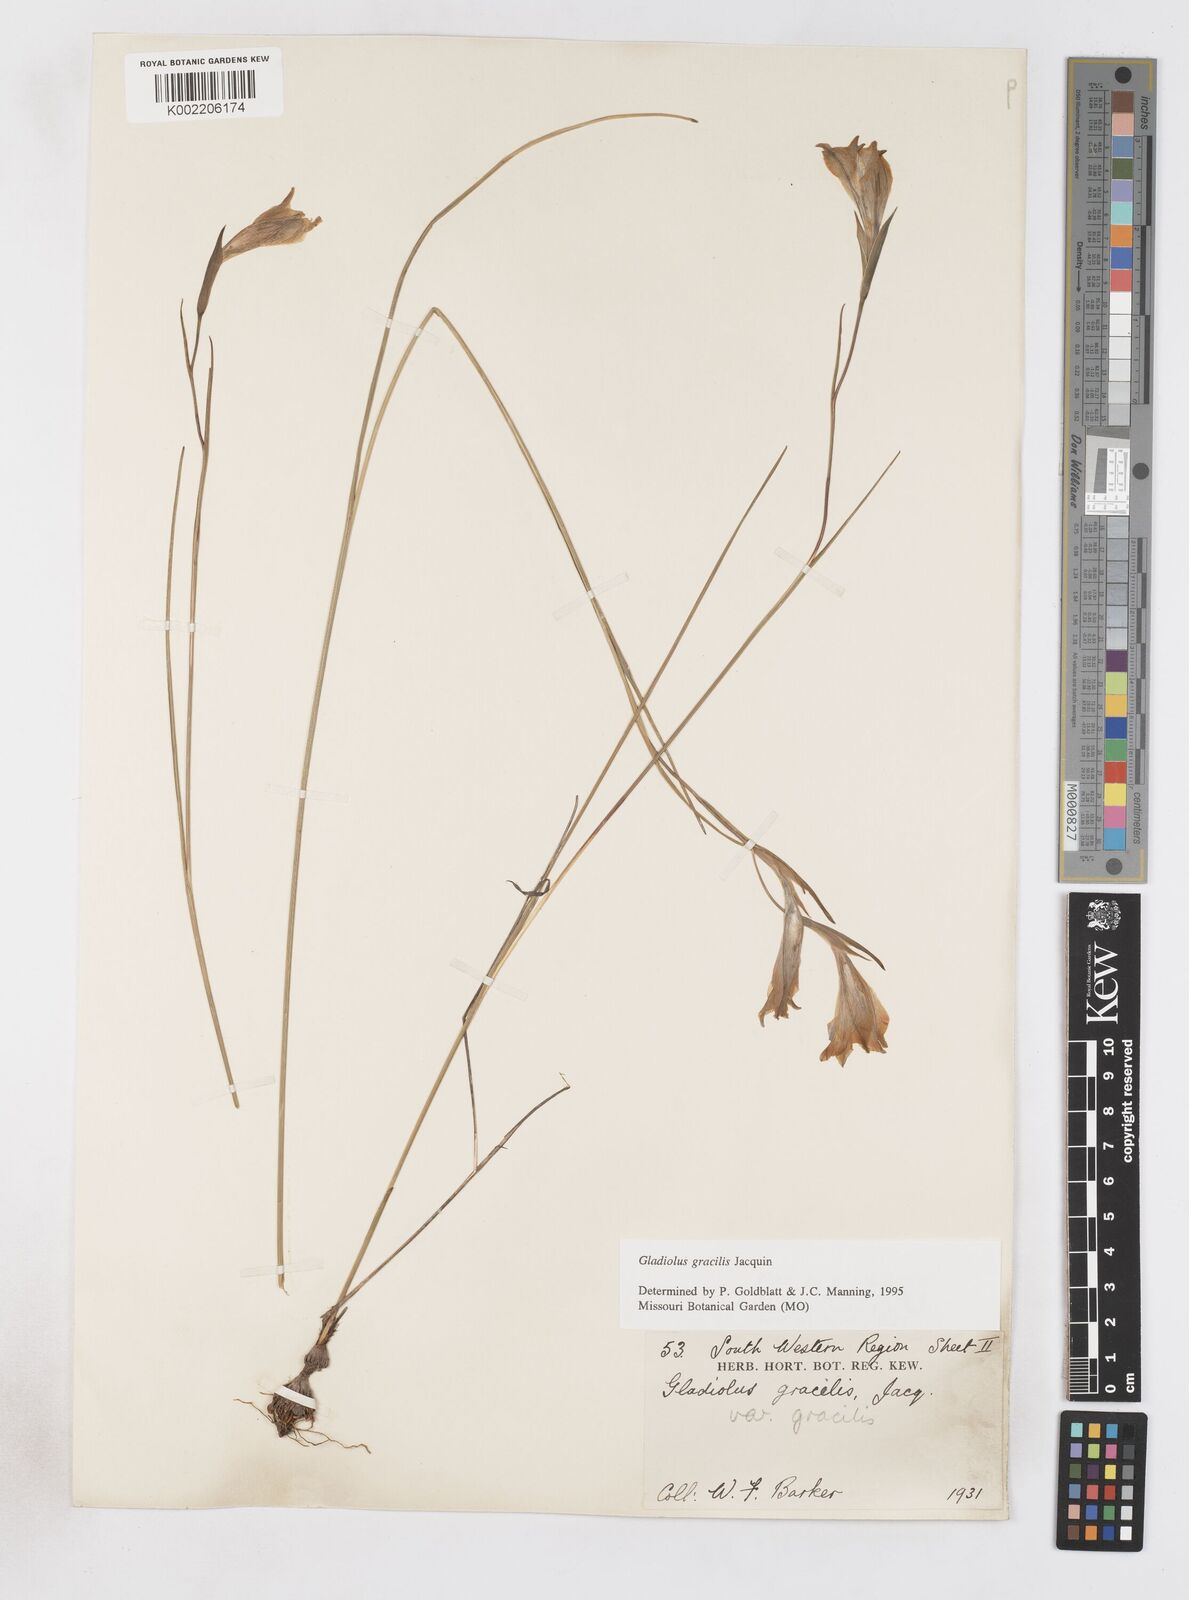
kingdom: Plantae
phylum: Tracheophyta
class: Liliopsida
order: Asparagales
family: Iridaceae
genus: Gladiolus
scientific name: Gladiolus gracilis
